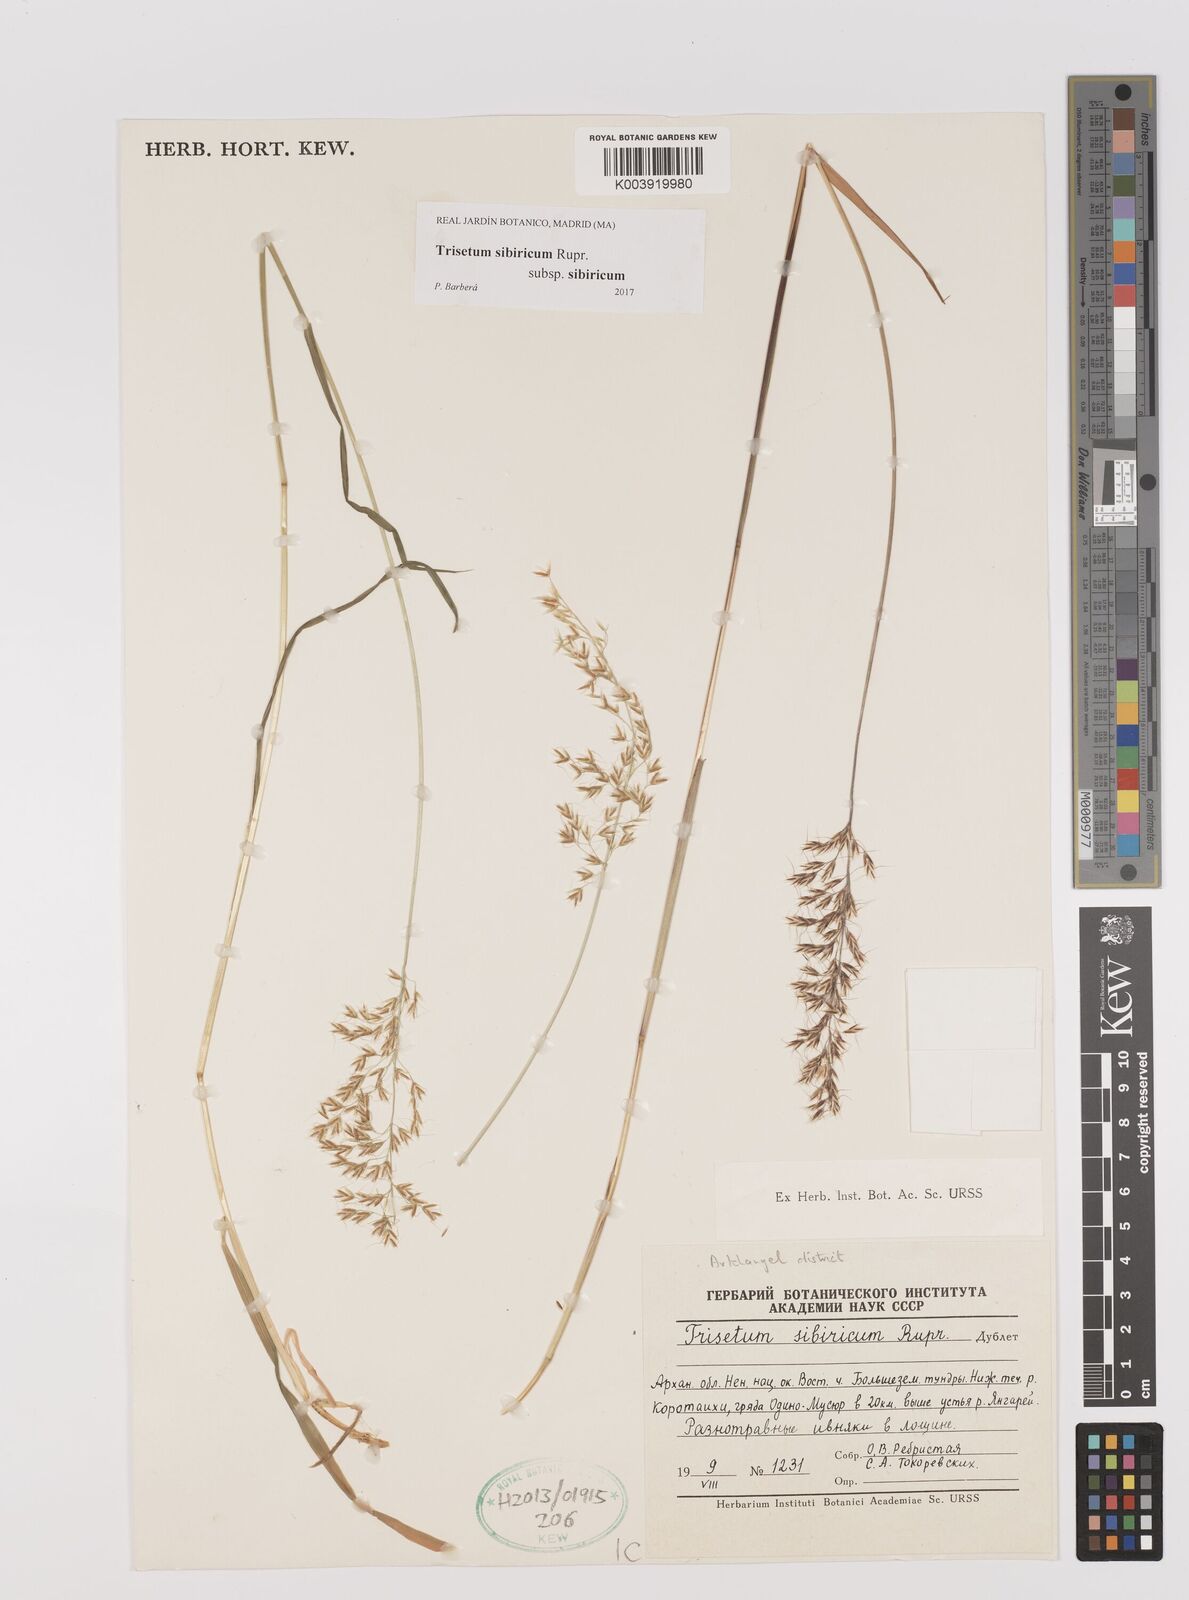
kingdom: Plantae
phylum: Tracheophyta
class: Liliopsida
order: Poales
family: Poaceae
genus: Sibirotrisetum
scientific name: Sibirotrisetum sibiricum
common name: Siberian false oat
